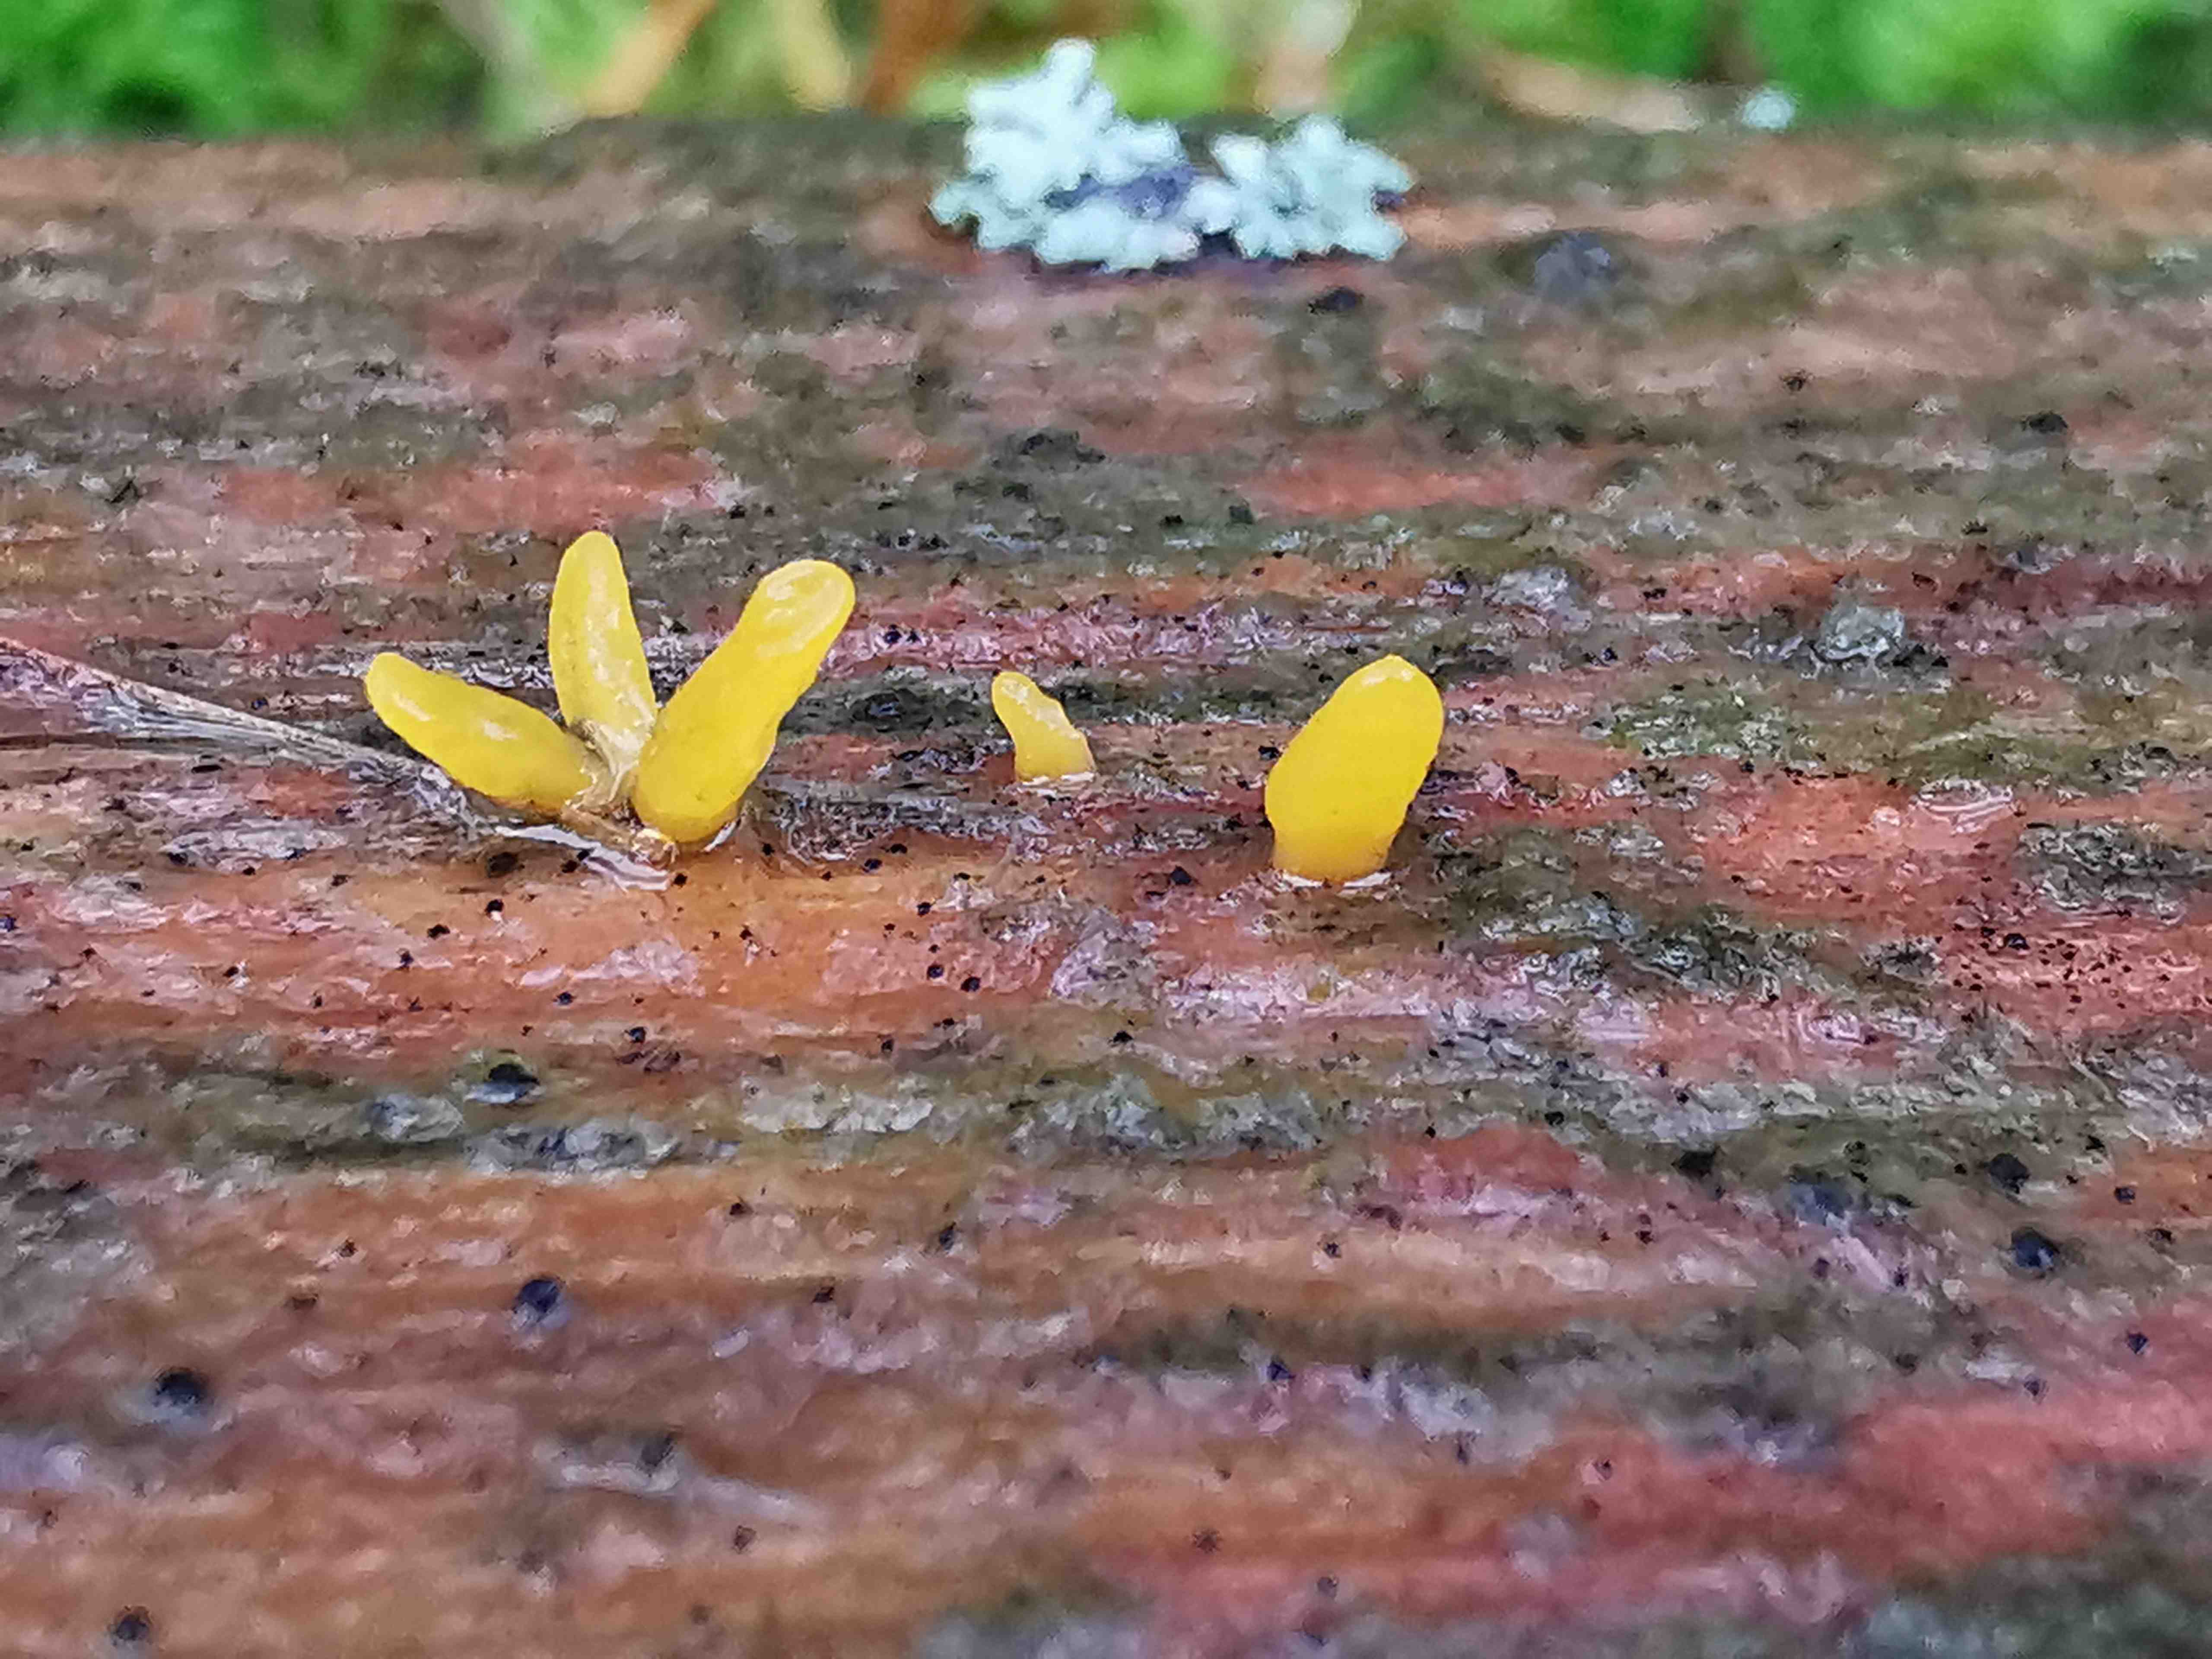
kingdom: Fungi
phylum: Basidiomycota
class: Dacrymycetes
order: Dacrymycetales
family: Dacrymycetaceae
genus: Calocera
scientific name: Calocera furcata
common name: fyrre-guldgaffel
